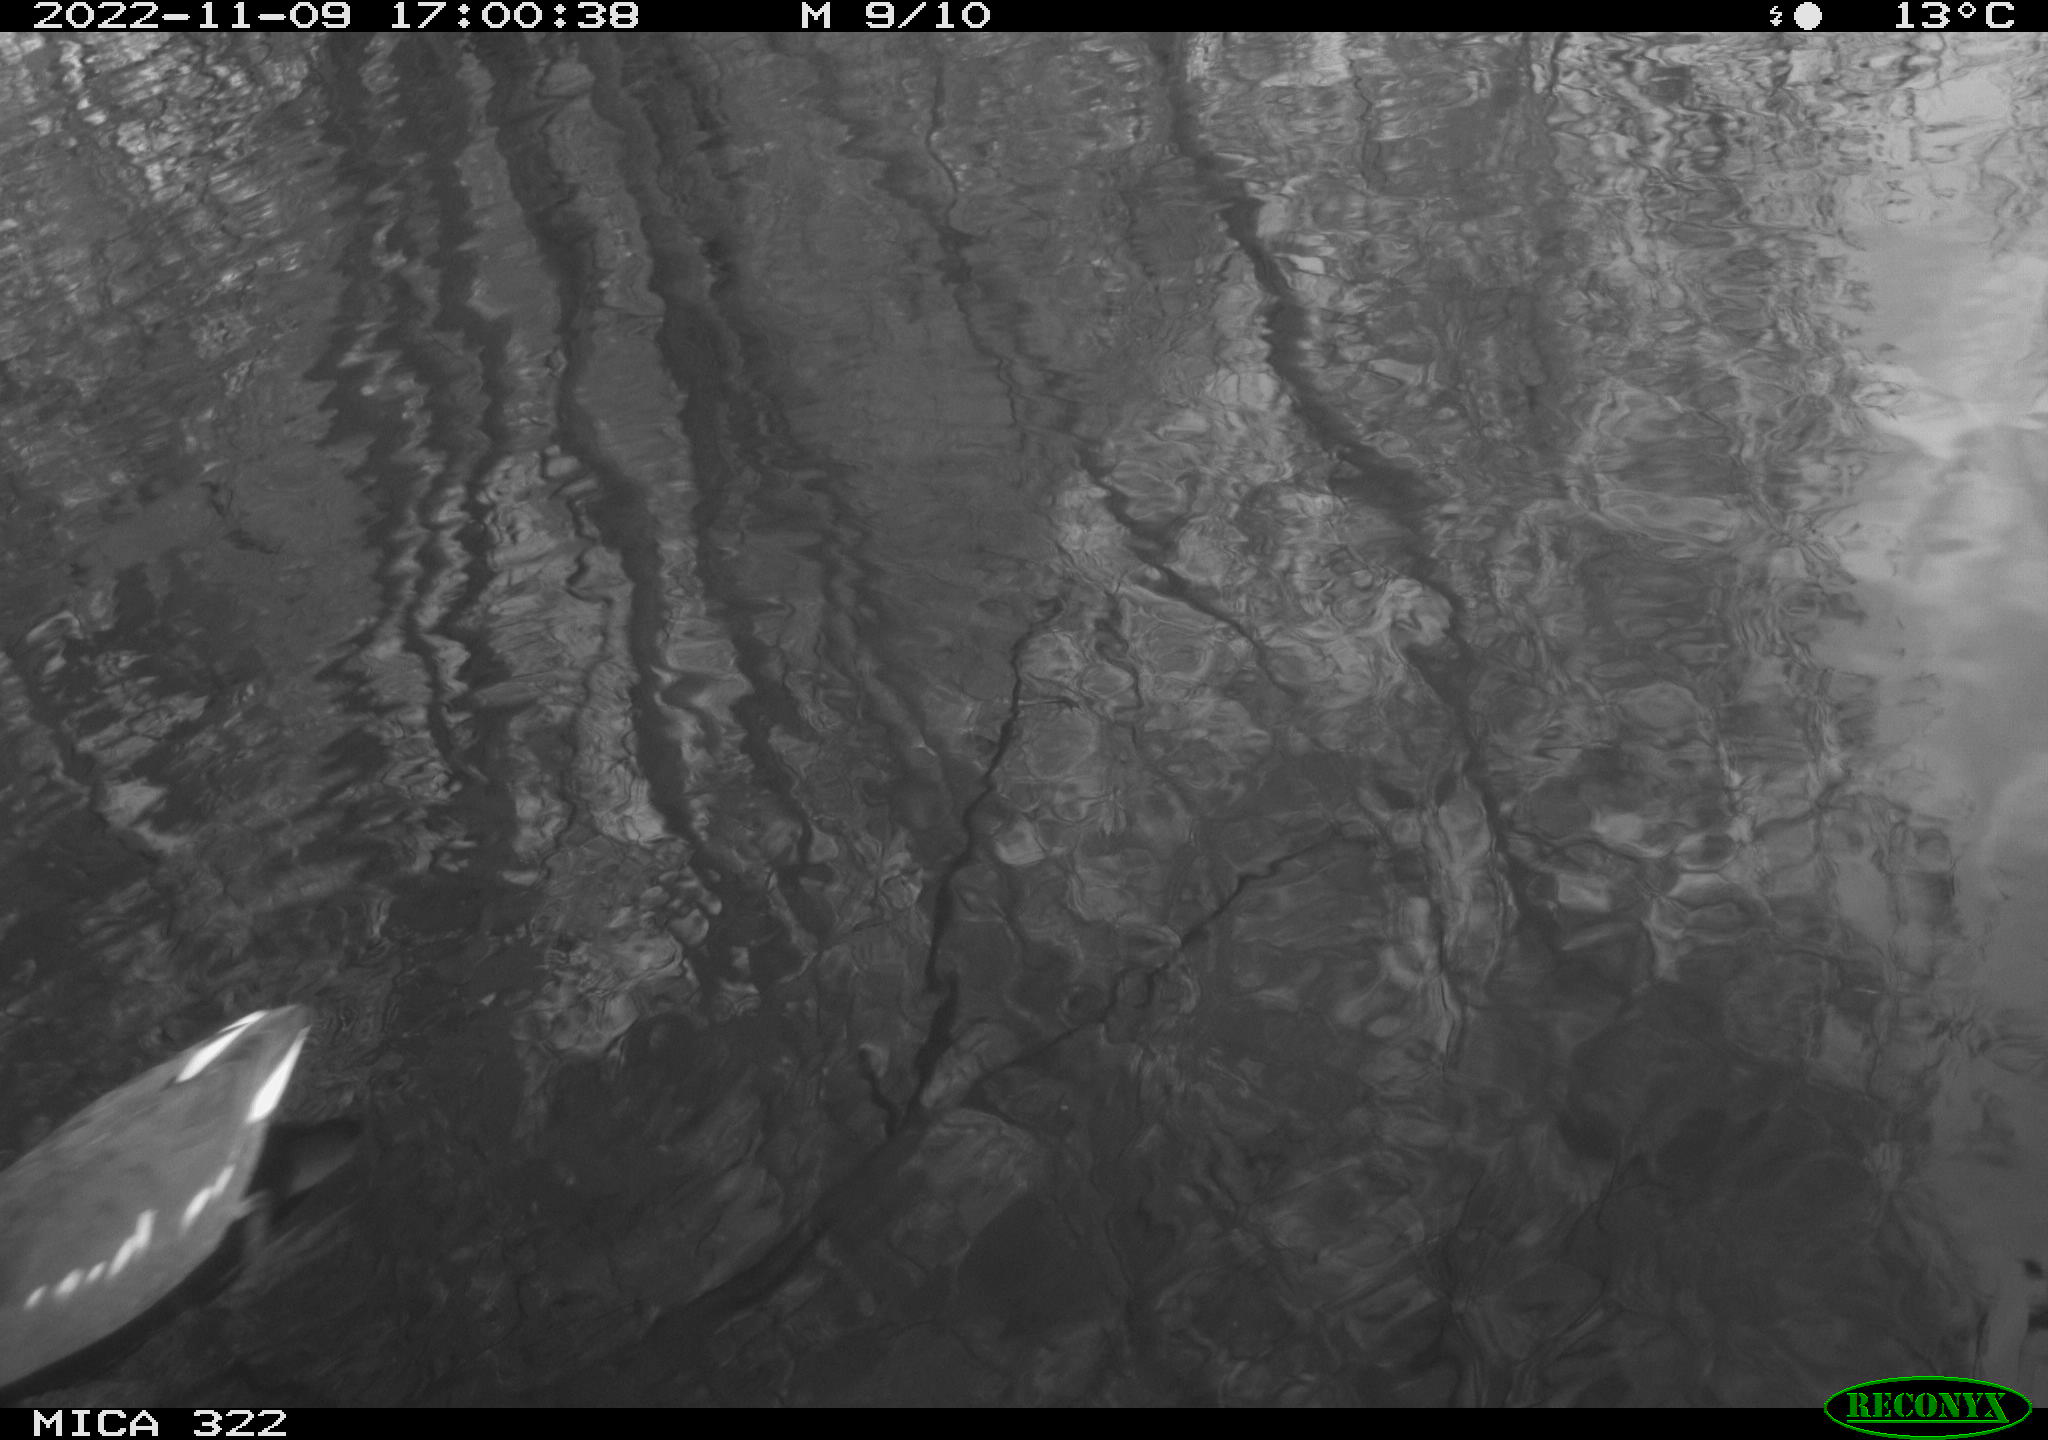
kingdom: Animalia
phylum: Chordata
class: Aves
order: Gruiformes
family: Rallidae
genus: Gallinula
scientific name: Gallinula chloropus
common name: Common moorhen
